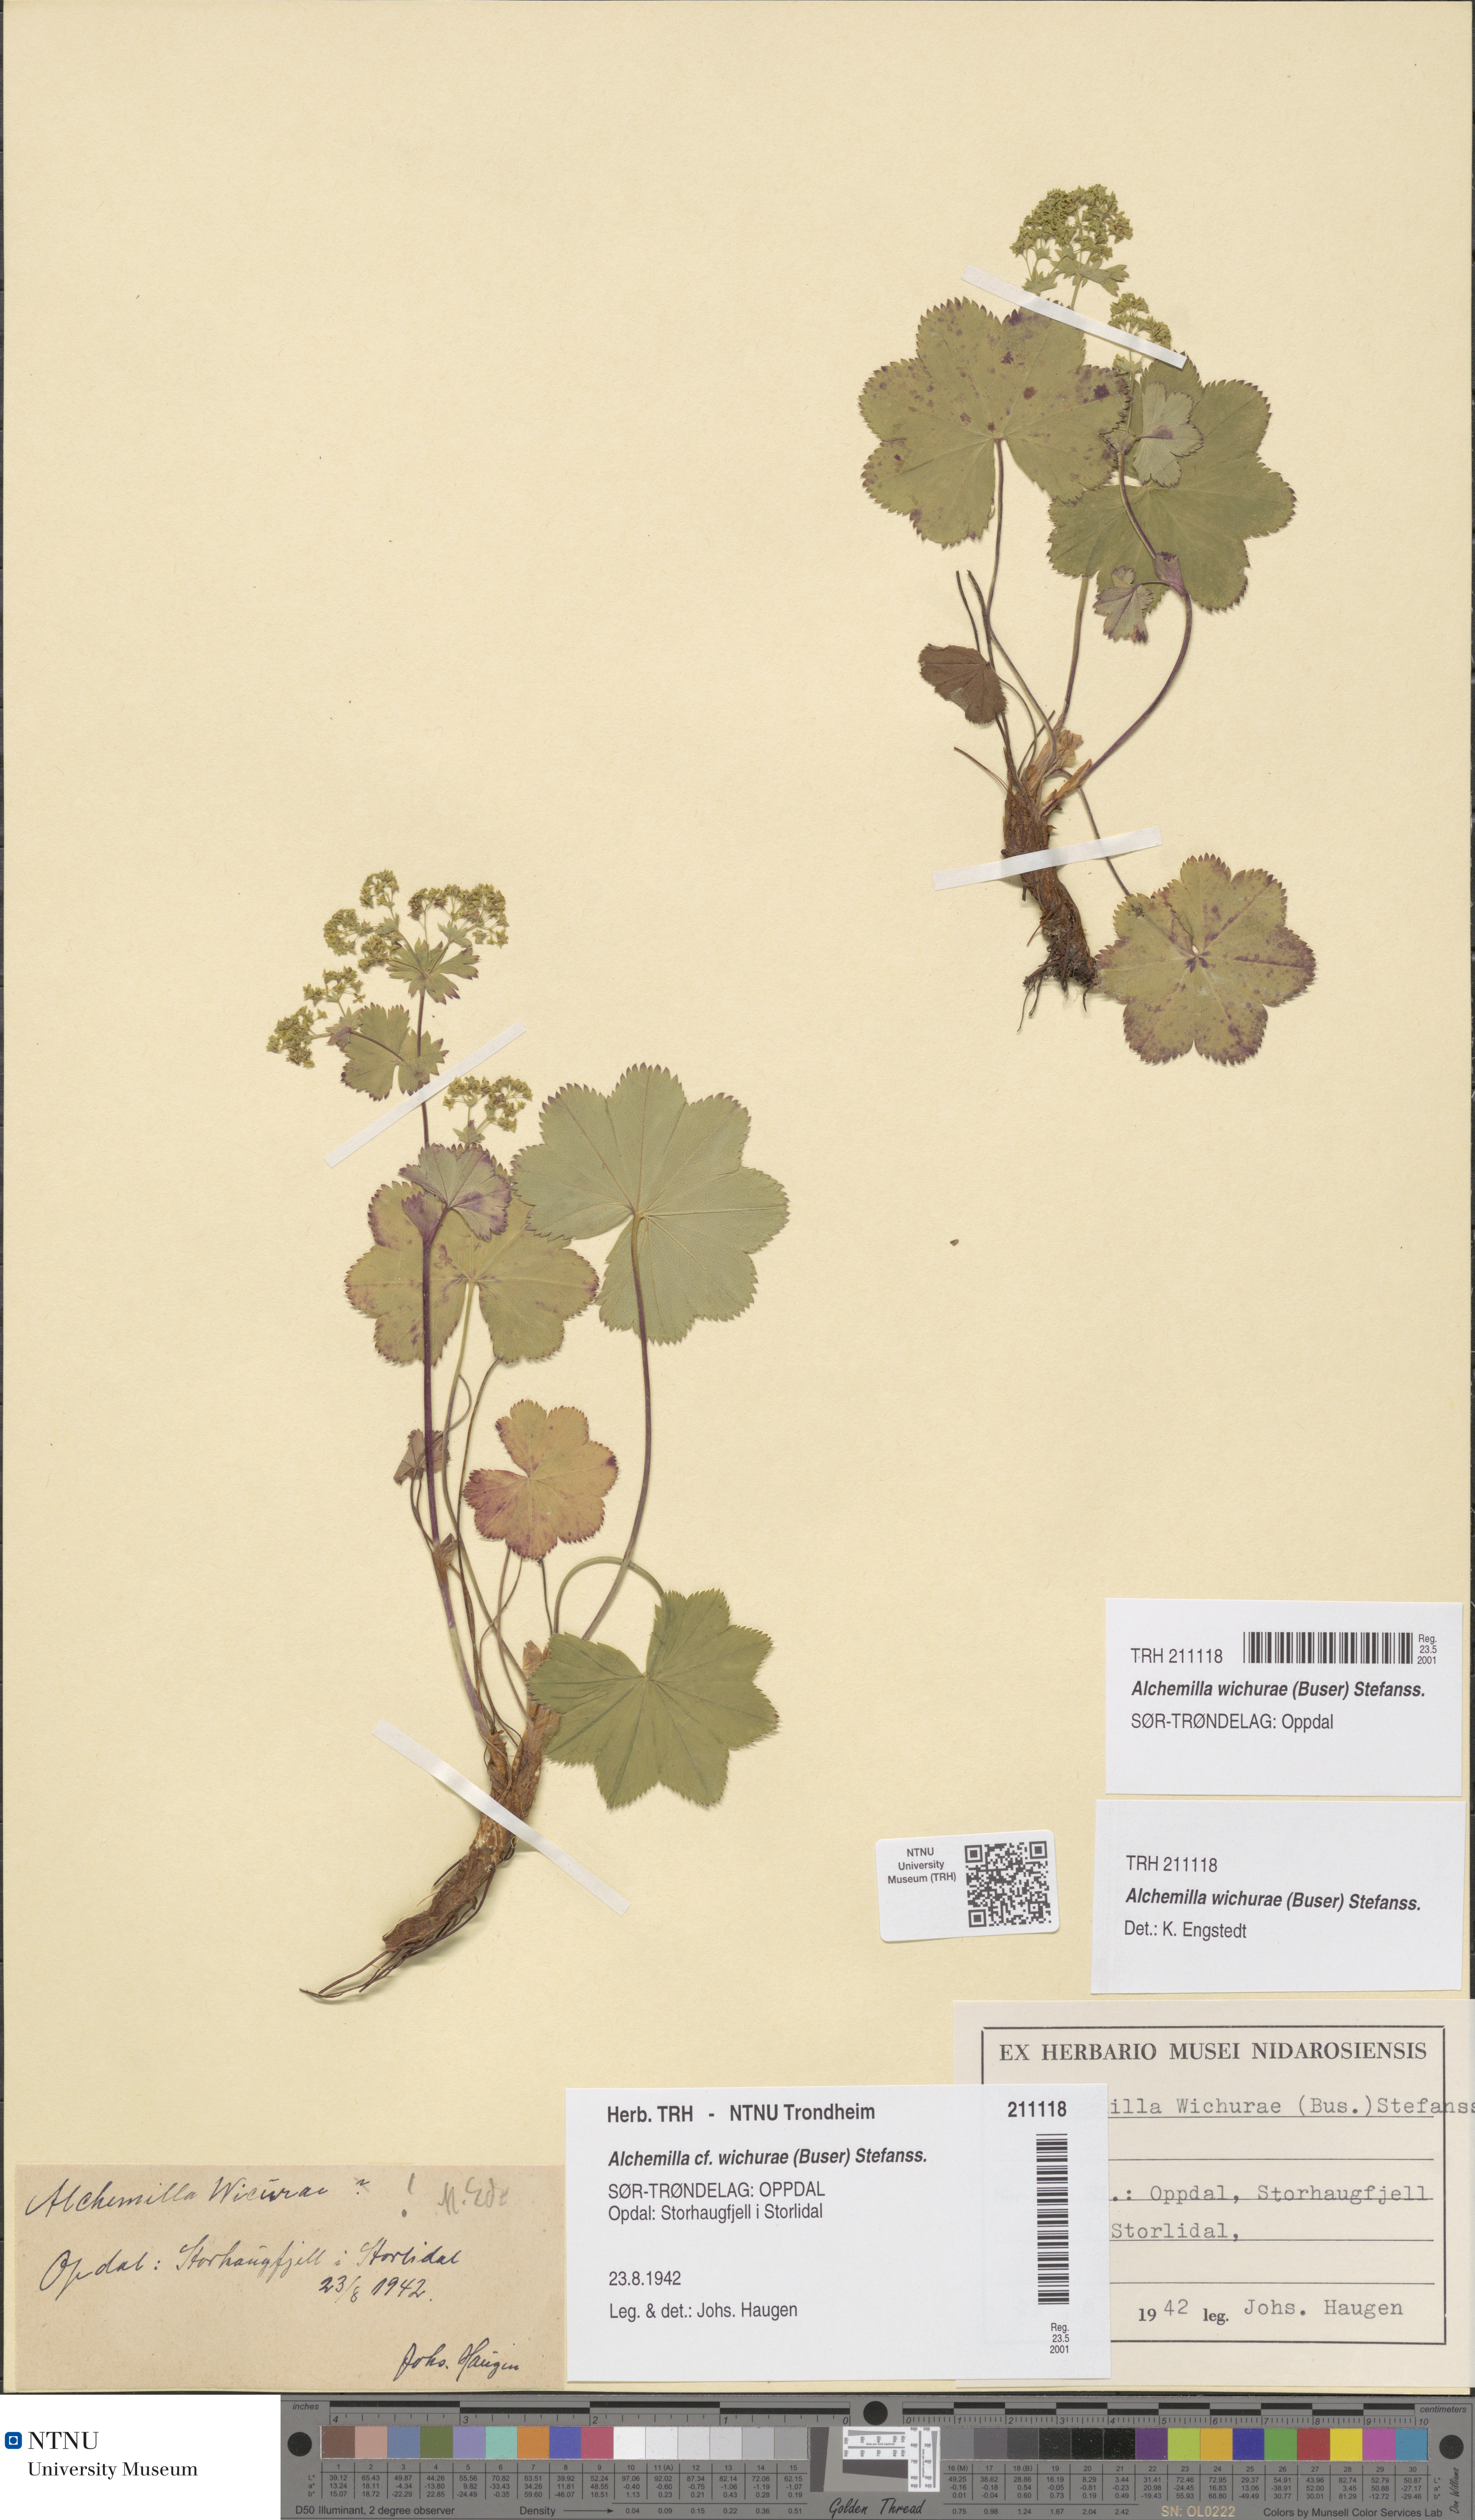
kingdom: Plantae
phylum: Tracheophyta
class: Magnoliopsida
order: Rosales
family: Rosaceae
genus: Alchemilla
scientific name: Alchemilla wichurae
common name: Rock lady's mantle
